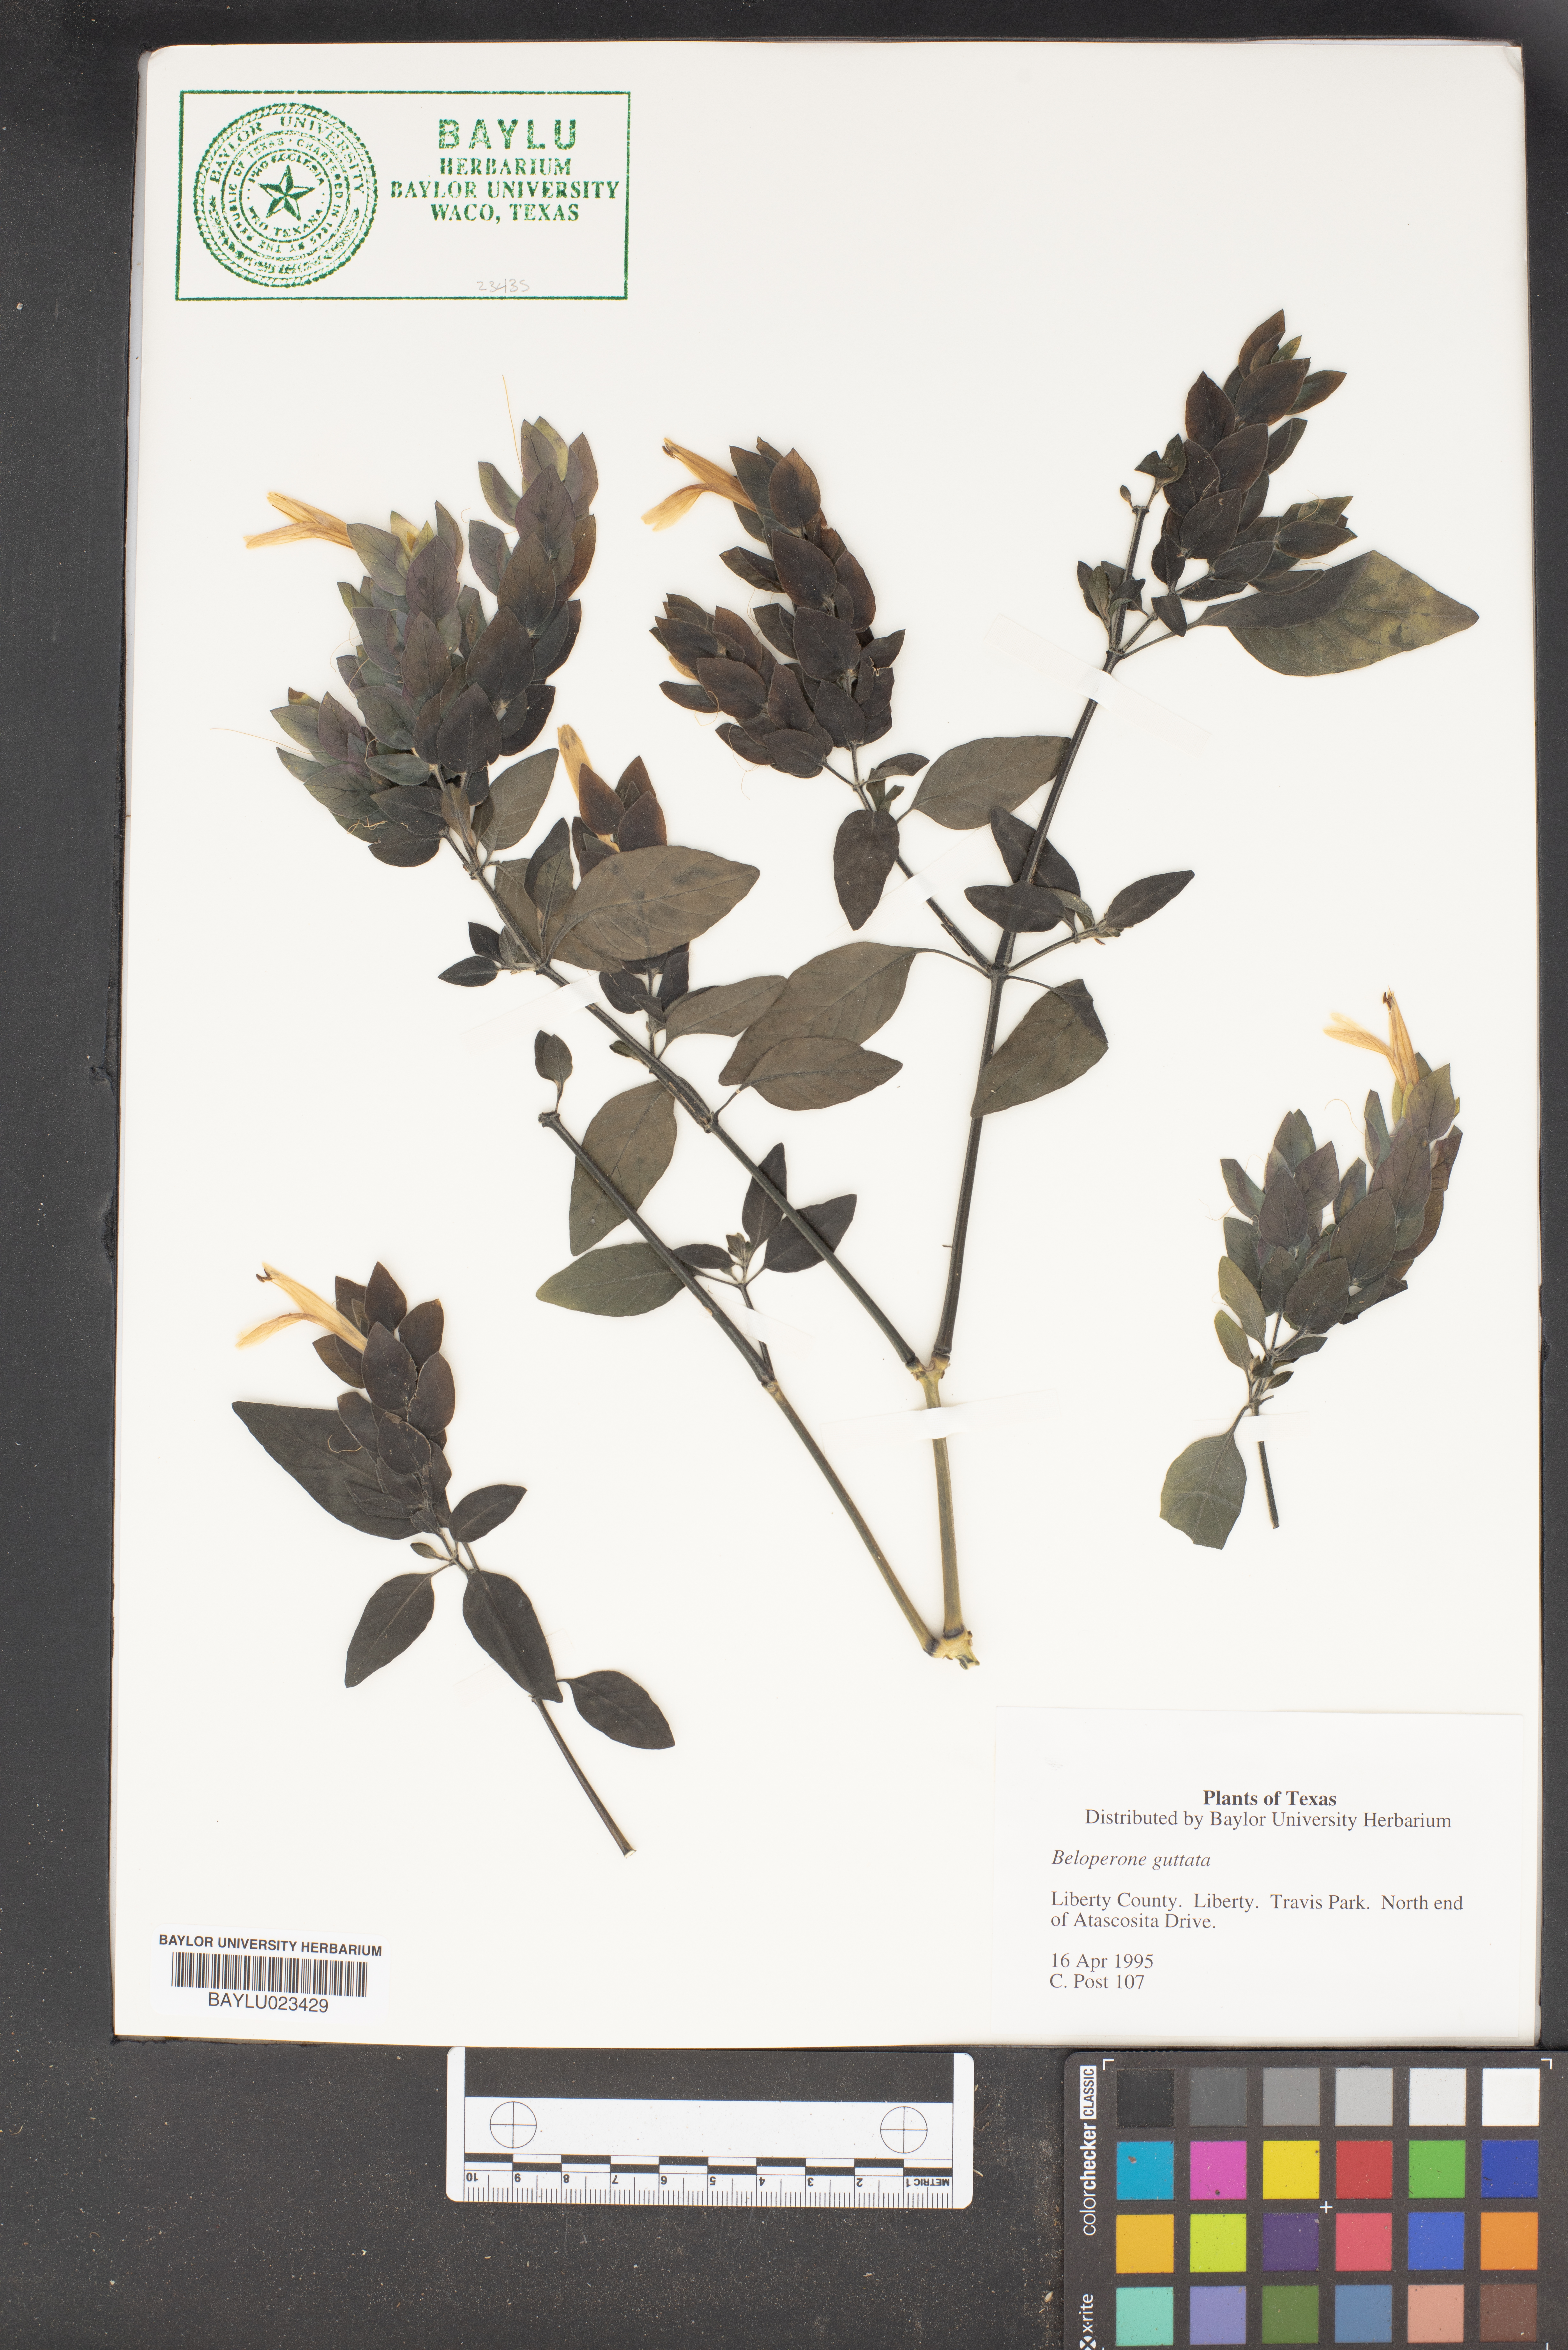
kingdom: Plantae
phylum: Tracheophyta
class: Magnoliopsida
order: Lamiales
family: Acanthaceae
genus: Justicia
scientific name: Justicia brandegeeana
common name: Shrimpplant
